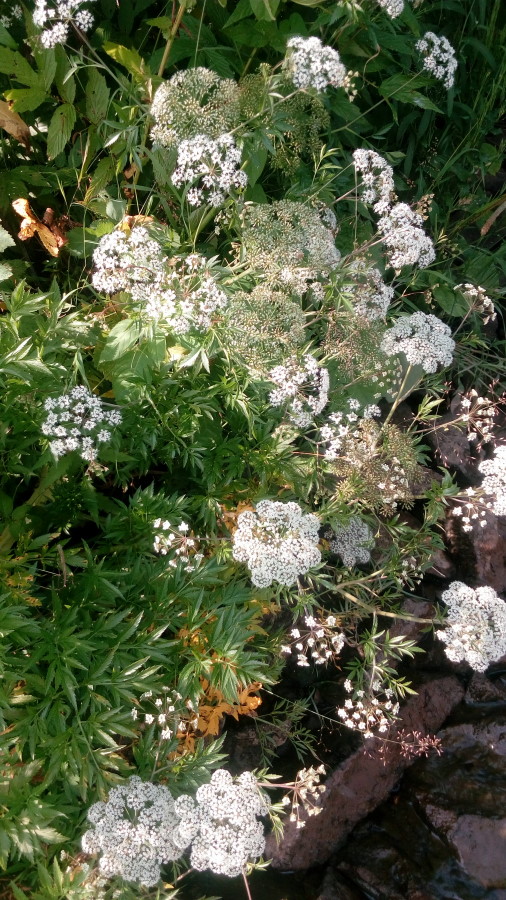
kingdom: Plantae
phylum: Tracheophyta
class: Magnoliopsida
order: Apiales
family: Apiaceae
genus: Cicuta
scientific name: Cicuta virosa
